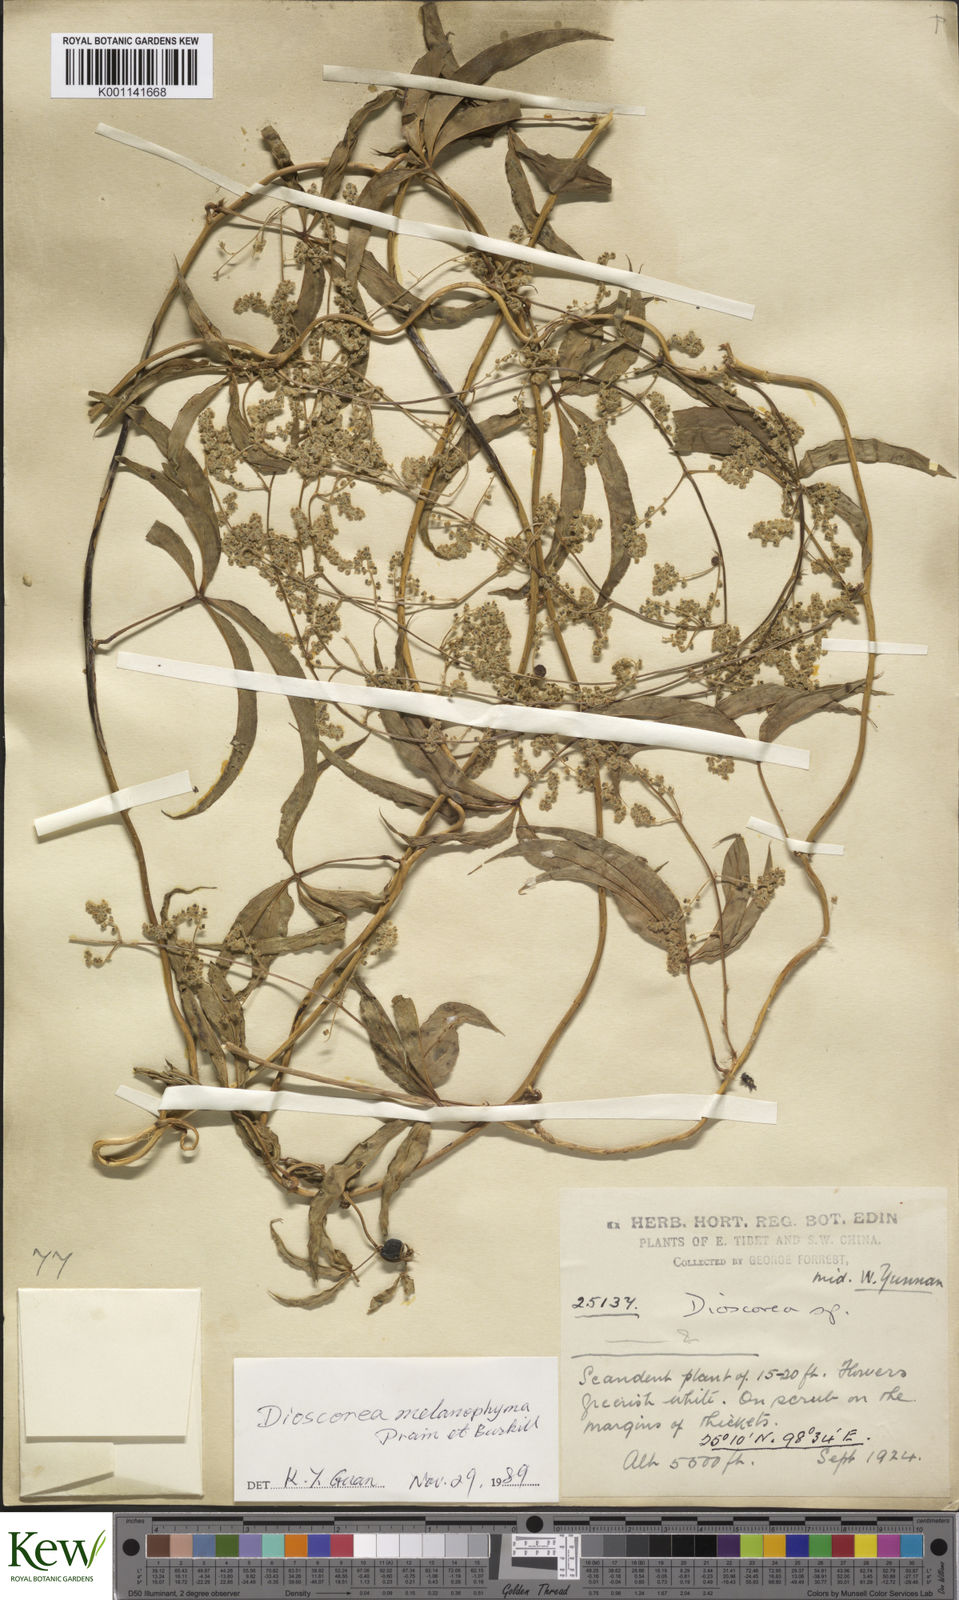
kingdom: Plantae
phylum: Tracheophyta
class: Liliopsida
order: Dioscoreales
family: Dioscoreaceae
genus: Dioscorea
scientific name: Dioscorea melanophyma
